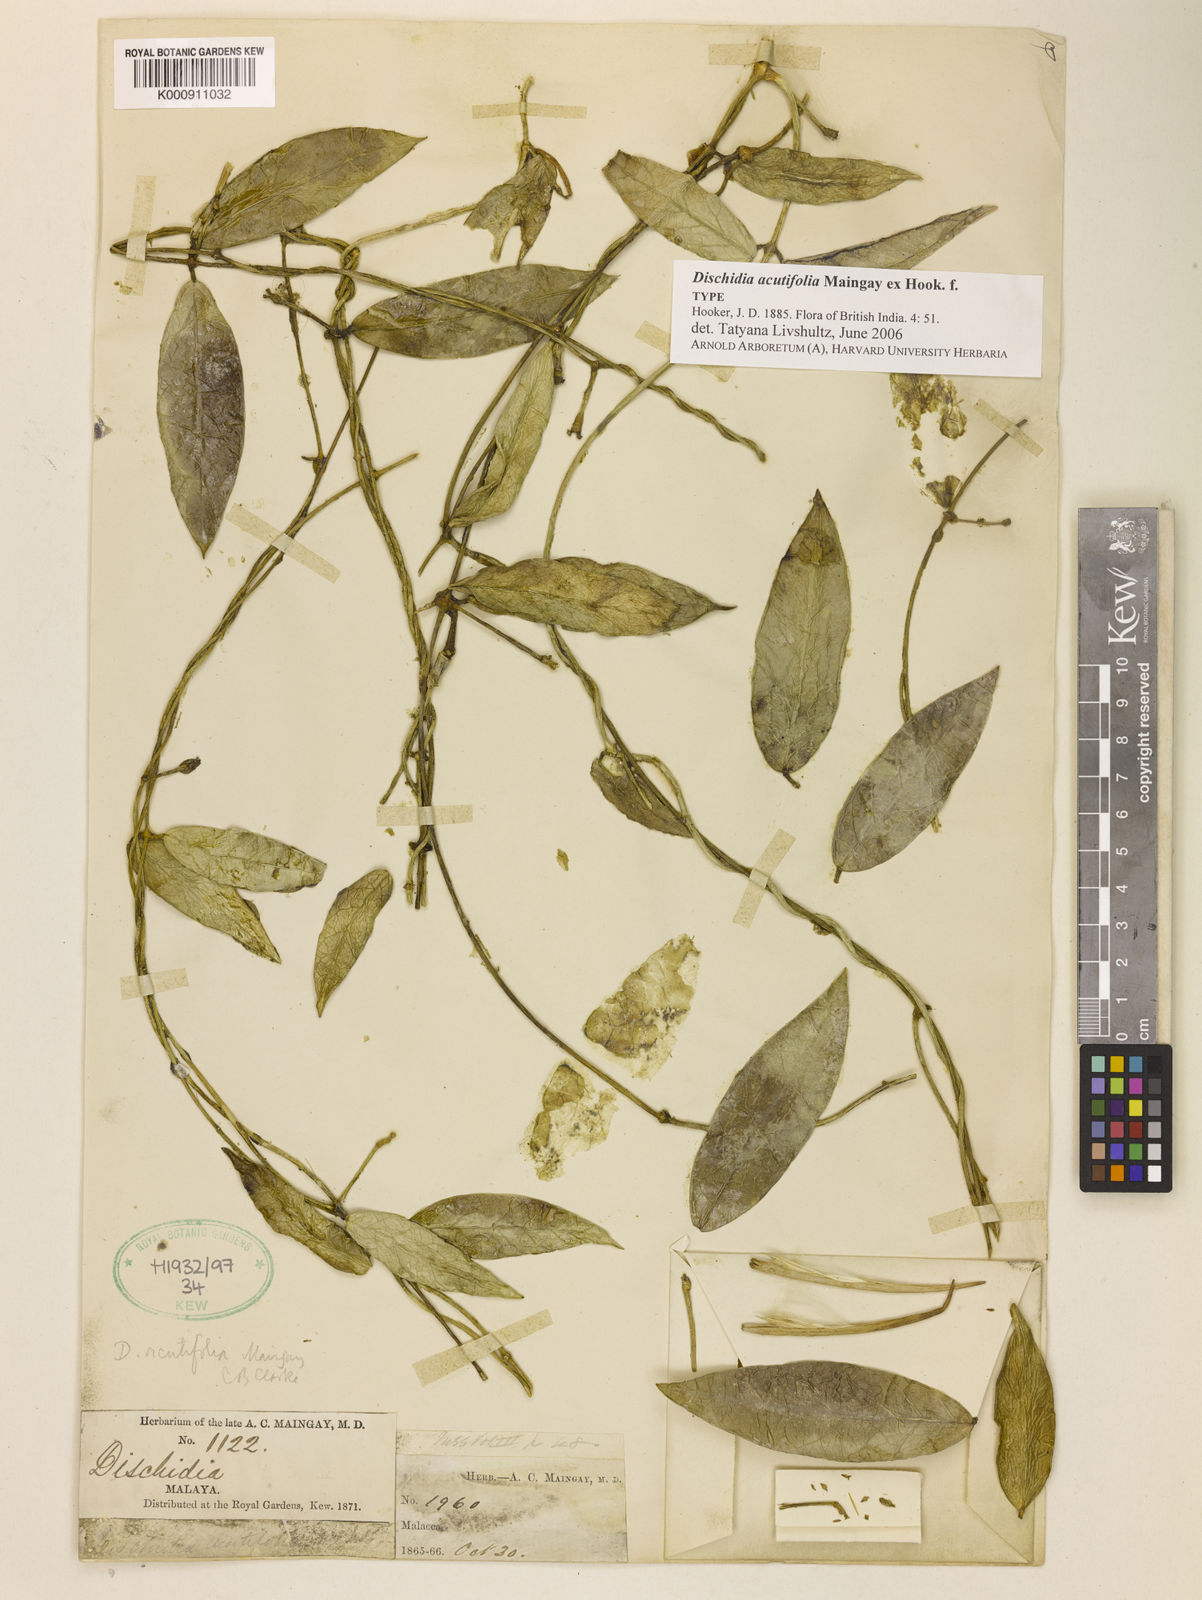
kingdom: Plantae
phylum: Tracheophyta
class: Magnoliopsida
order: Gentianales
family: Apocynaceae
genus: Dischidia
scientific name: Dischidia acutifolia
